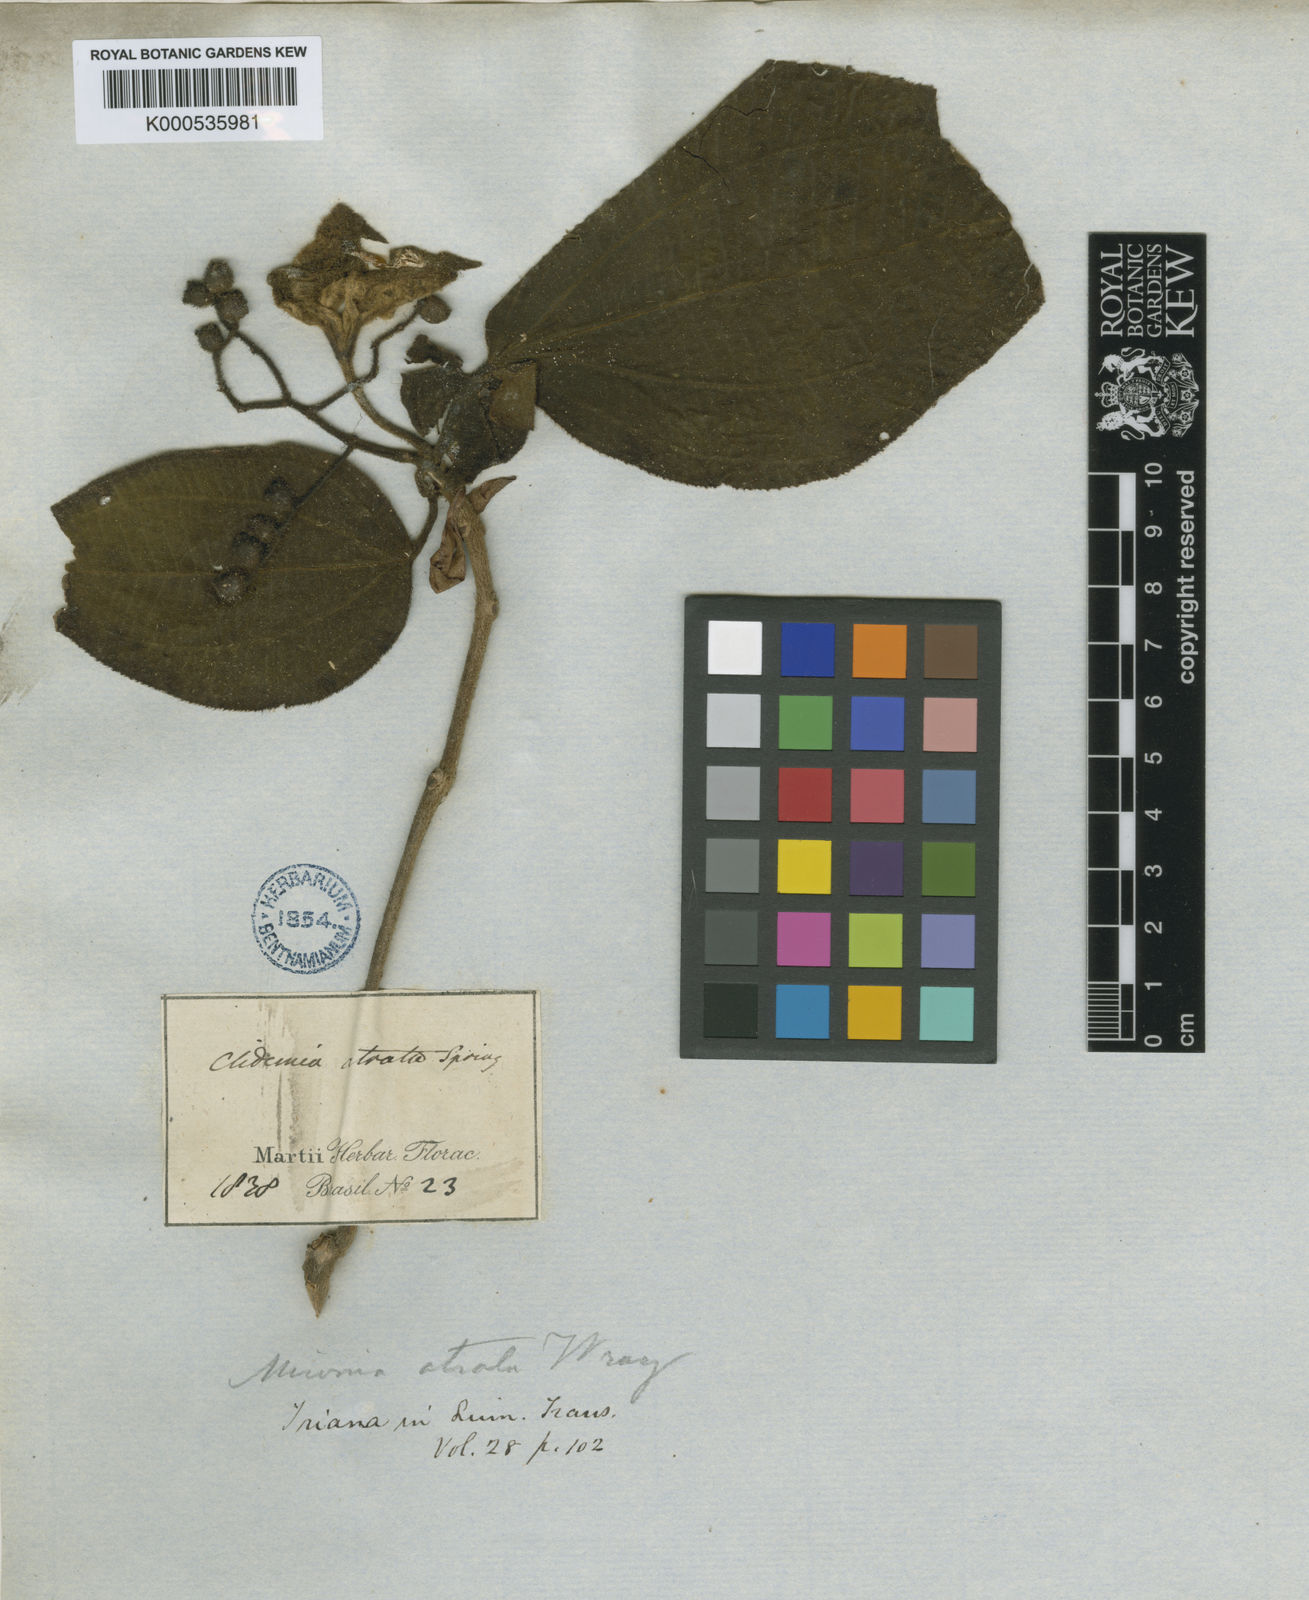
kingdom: Plantae
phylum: Tracheophyta
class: Magnoliopsida
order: Myrtales
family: Melastomataceae
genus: Miconia
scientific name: Miconia atrata
